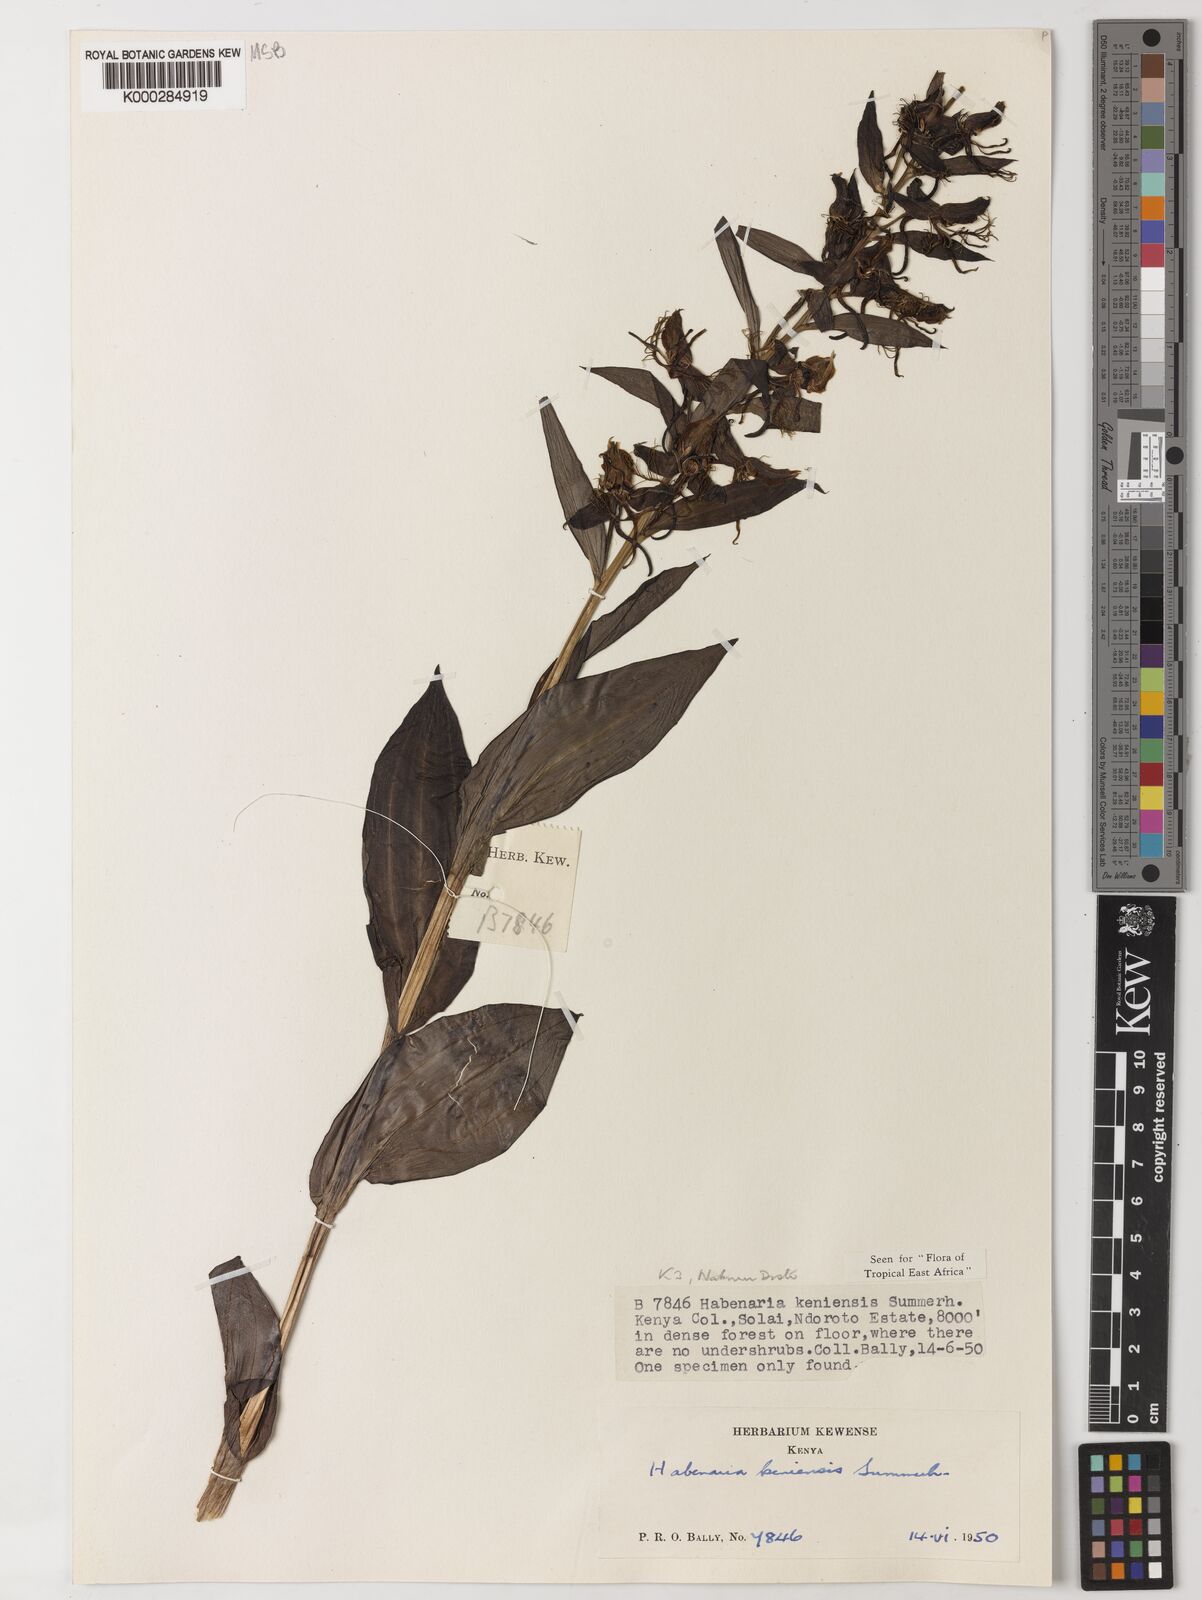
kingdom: Plantae
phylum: Tracheophyta
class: Liliopsida
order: Asparagales
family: Orchidaceae
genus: Habenaria
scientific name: Habenaria keniensis
